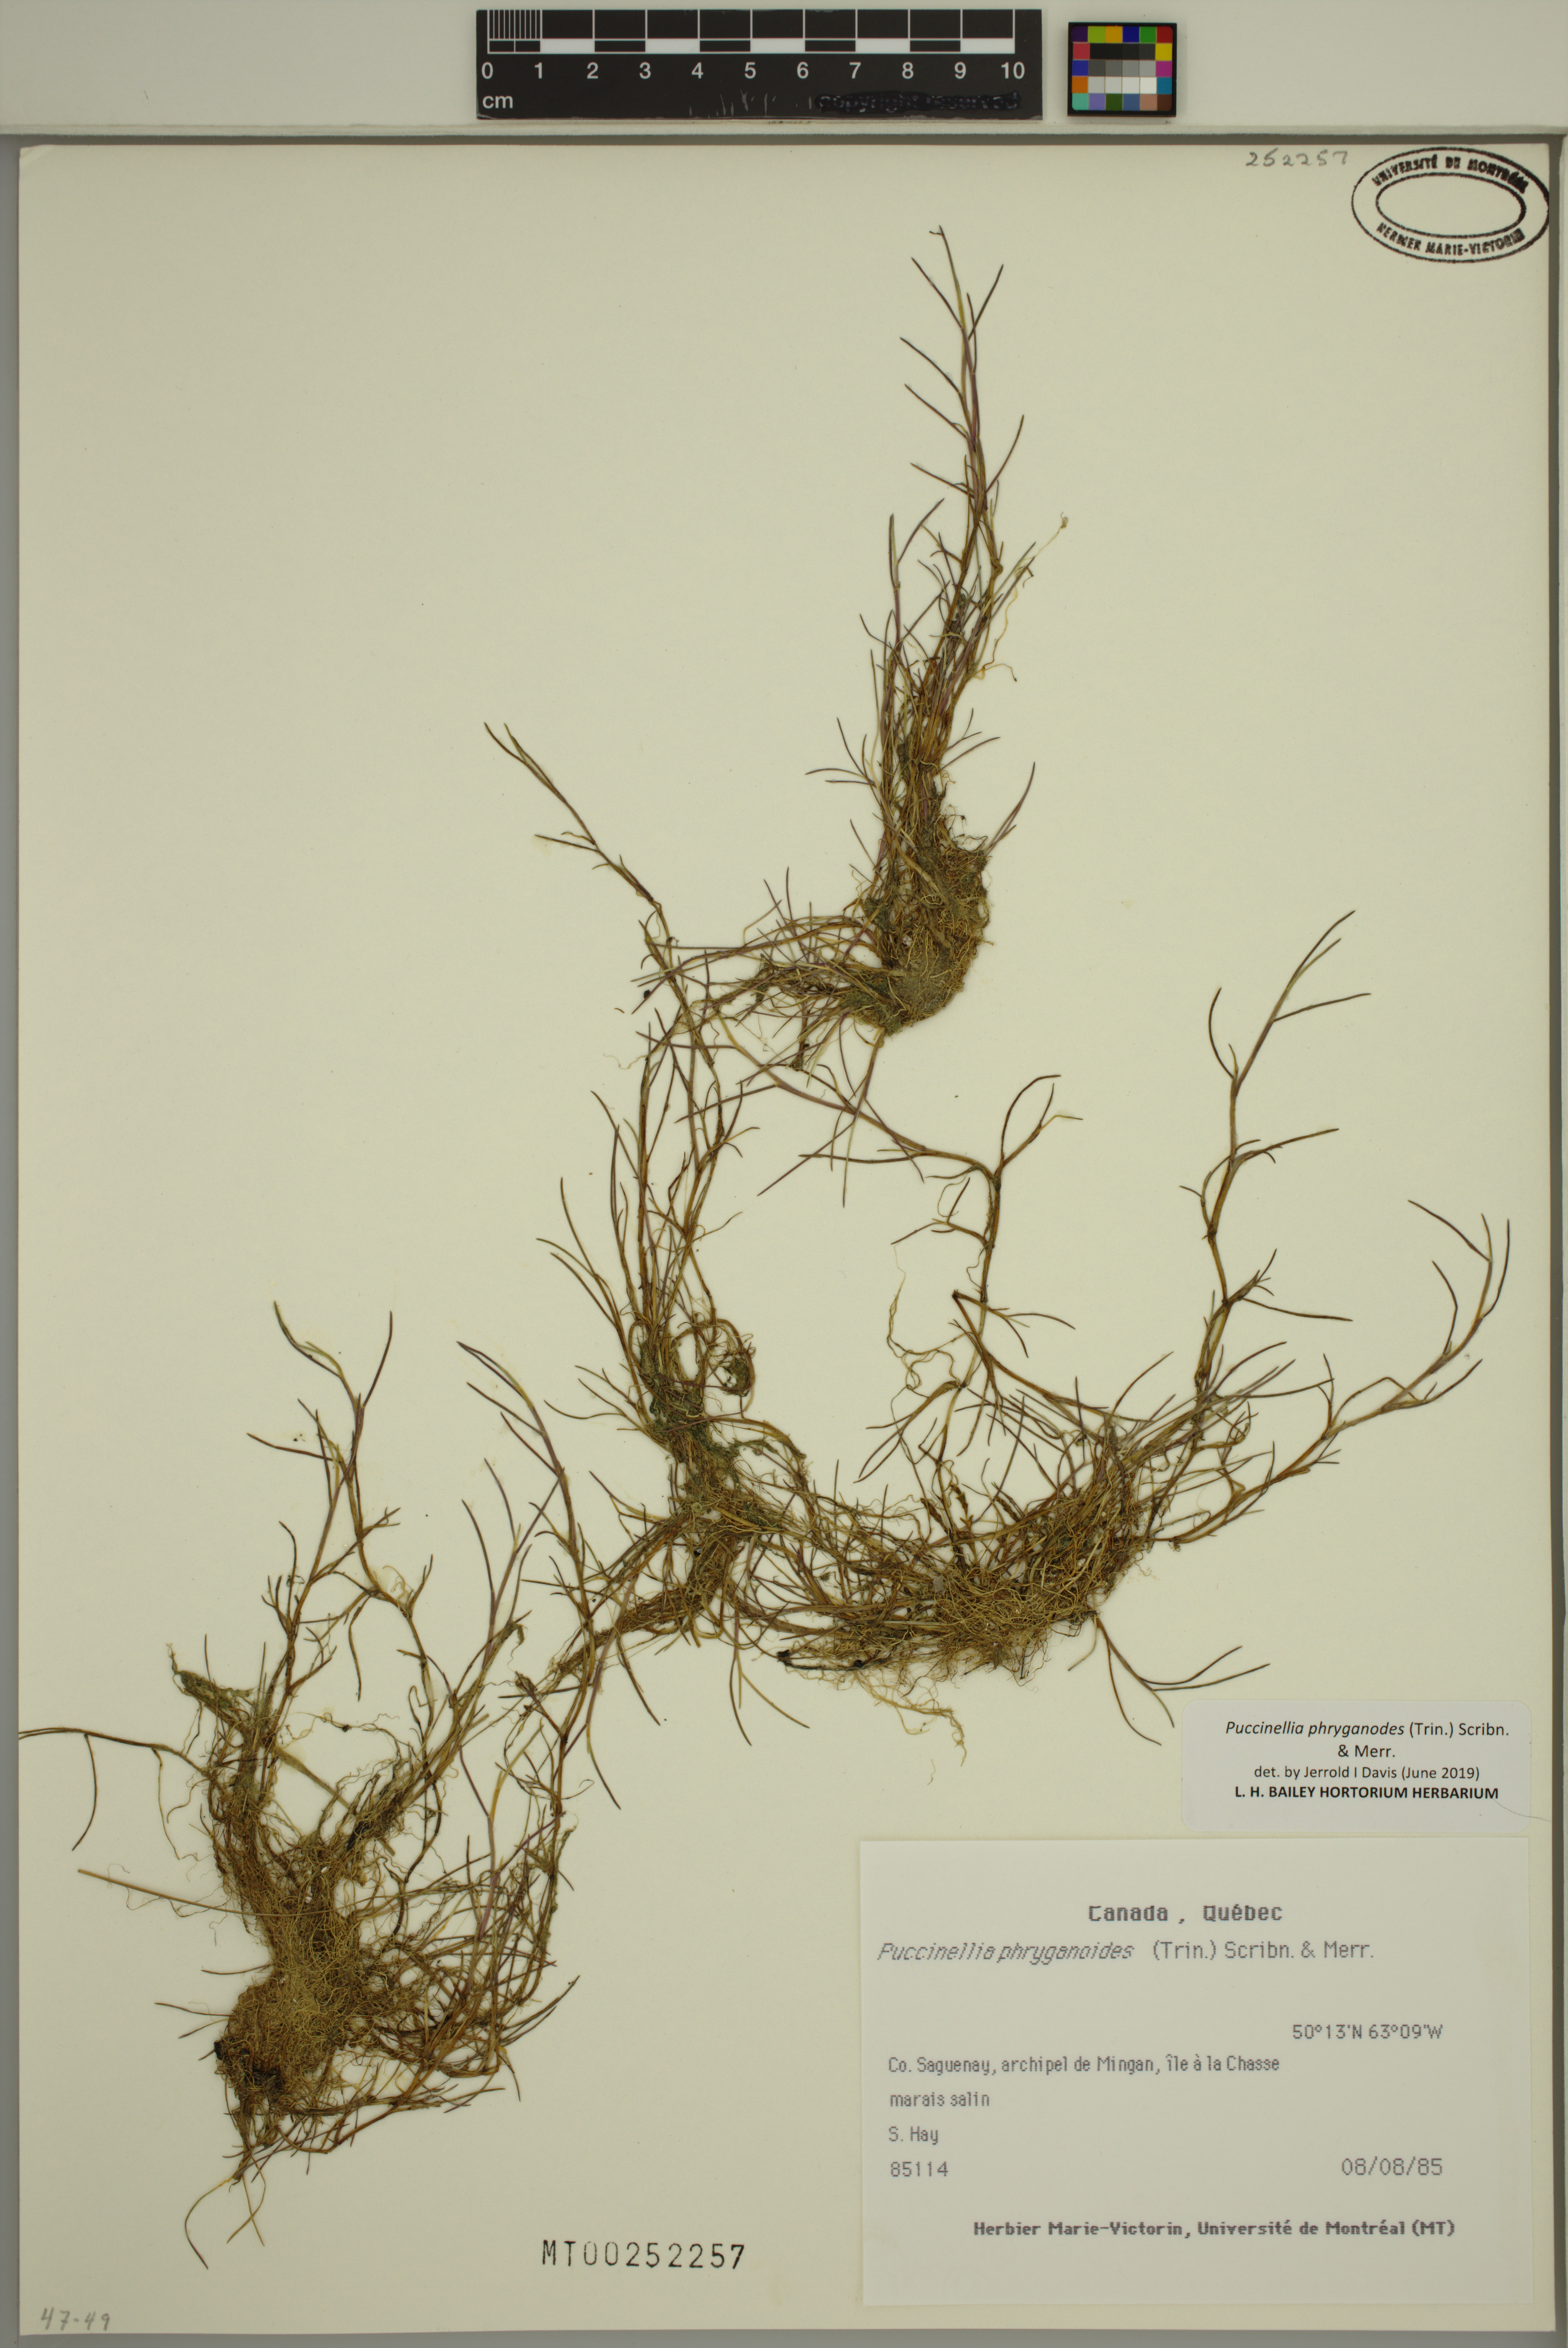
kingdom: Plantae
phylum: Tracheophyta
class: Liliopsida
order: Poales
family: Poaceae
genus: Puccinellia
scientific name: Puccinellia phryganodes
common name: Creeping alkaligrass
